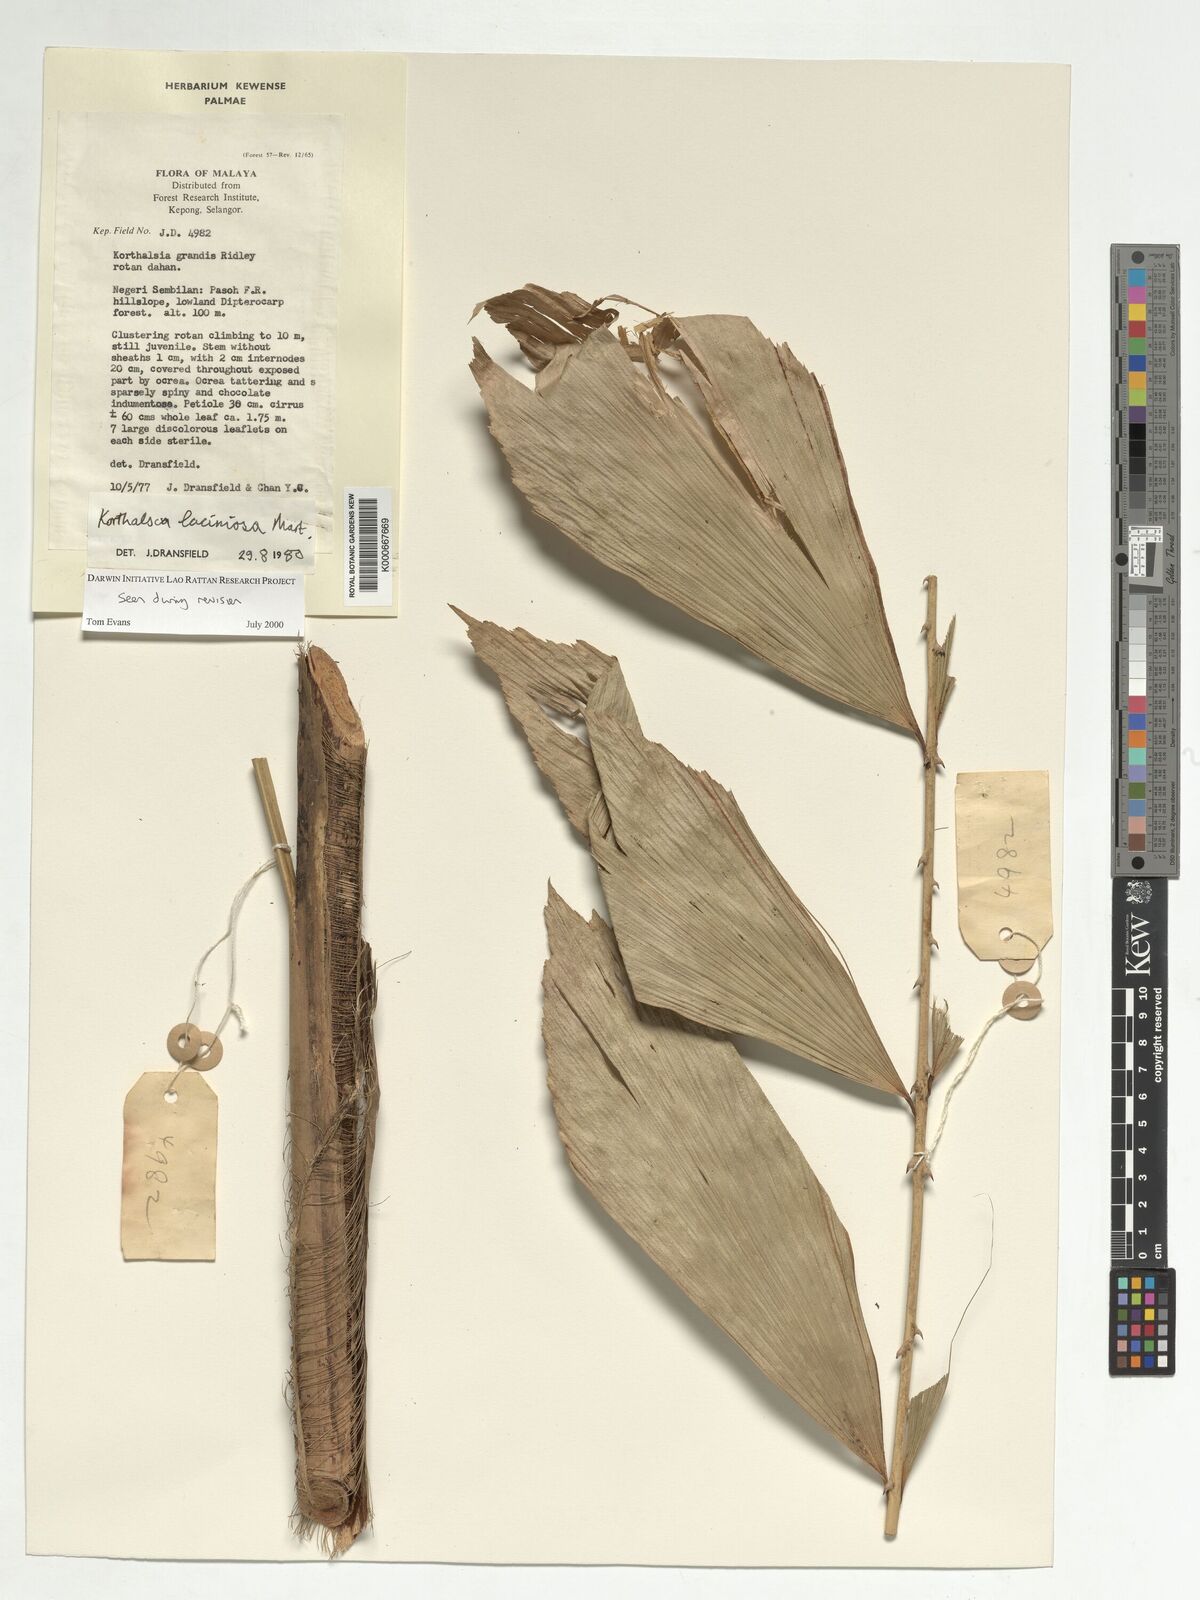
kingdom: Plantae
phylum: Tracheophyta
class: Liliopsida
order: Arecales
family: Arecaceae
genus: Korthalsia
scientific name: Korthalsia laciniosa
